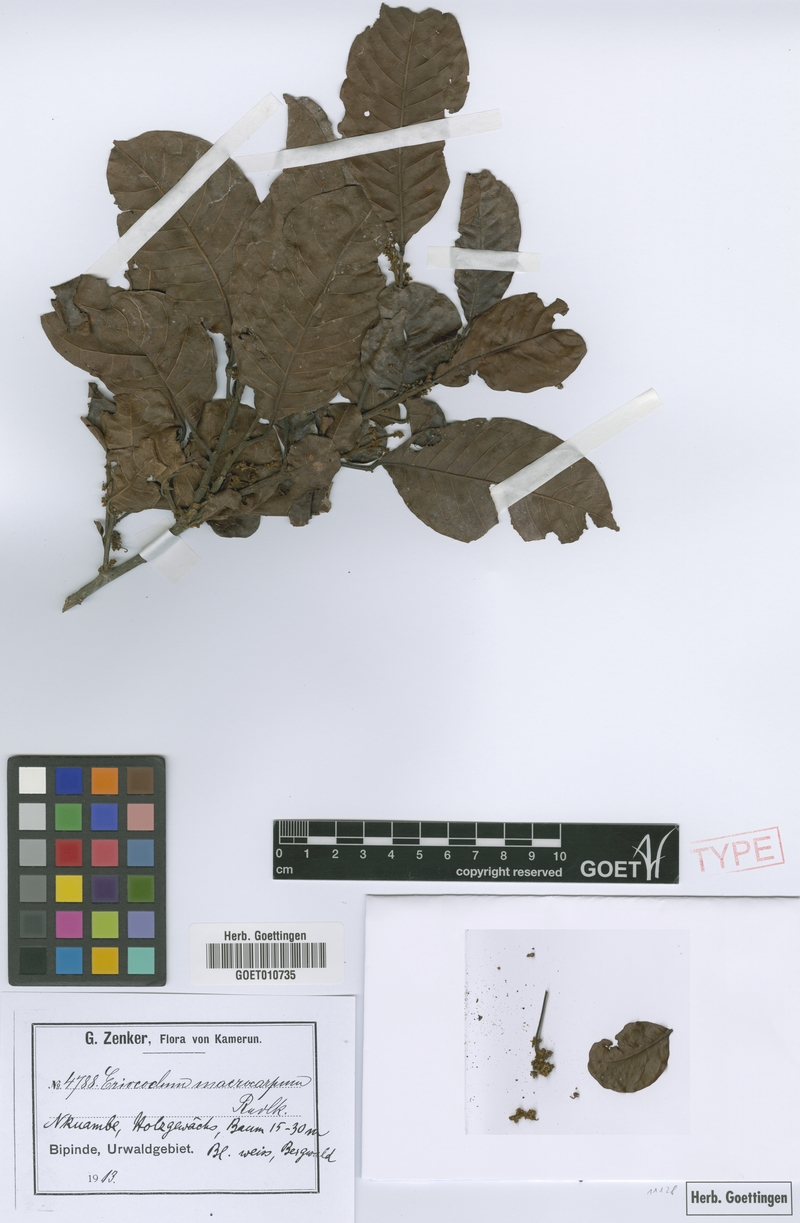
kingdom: Plantae
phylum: Tracheophyta
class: Magnoliopsida
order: Sapindales
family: Sapindaceae
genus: Eriocoelum
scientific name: Eriocoelum macrocarpum
